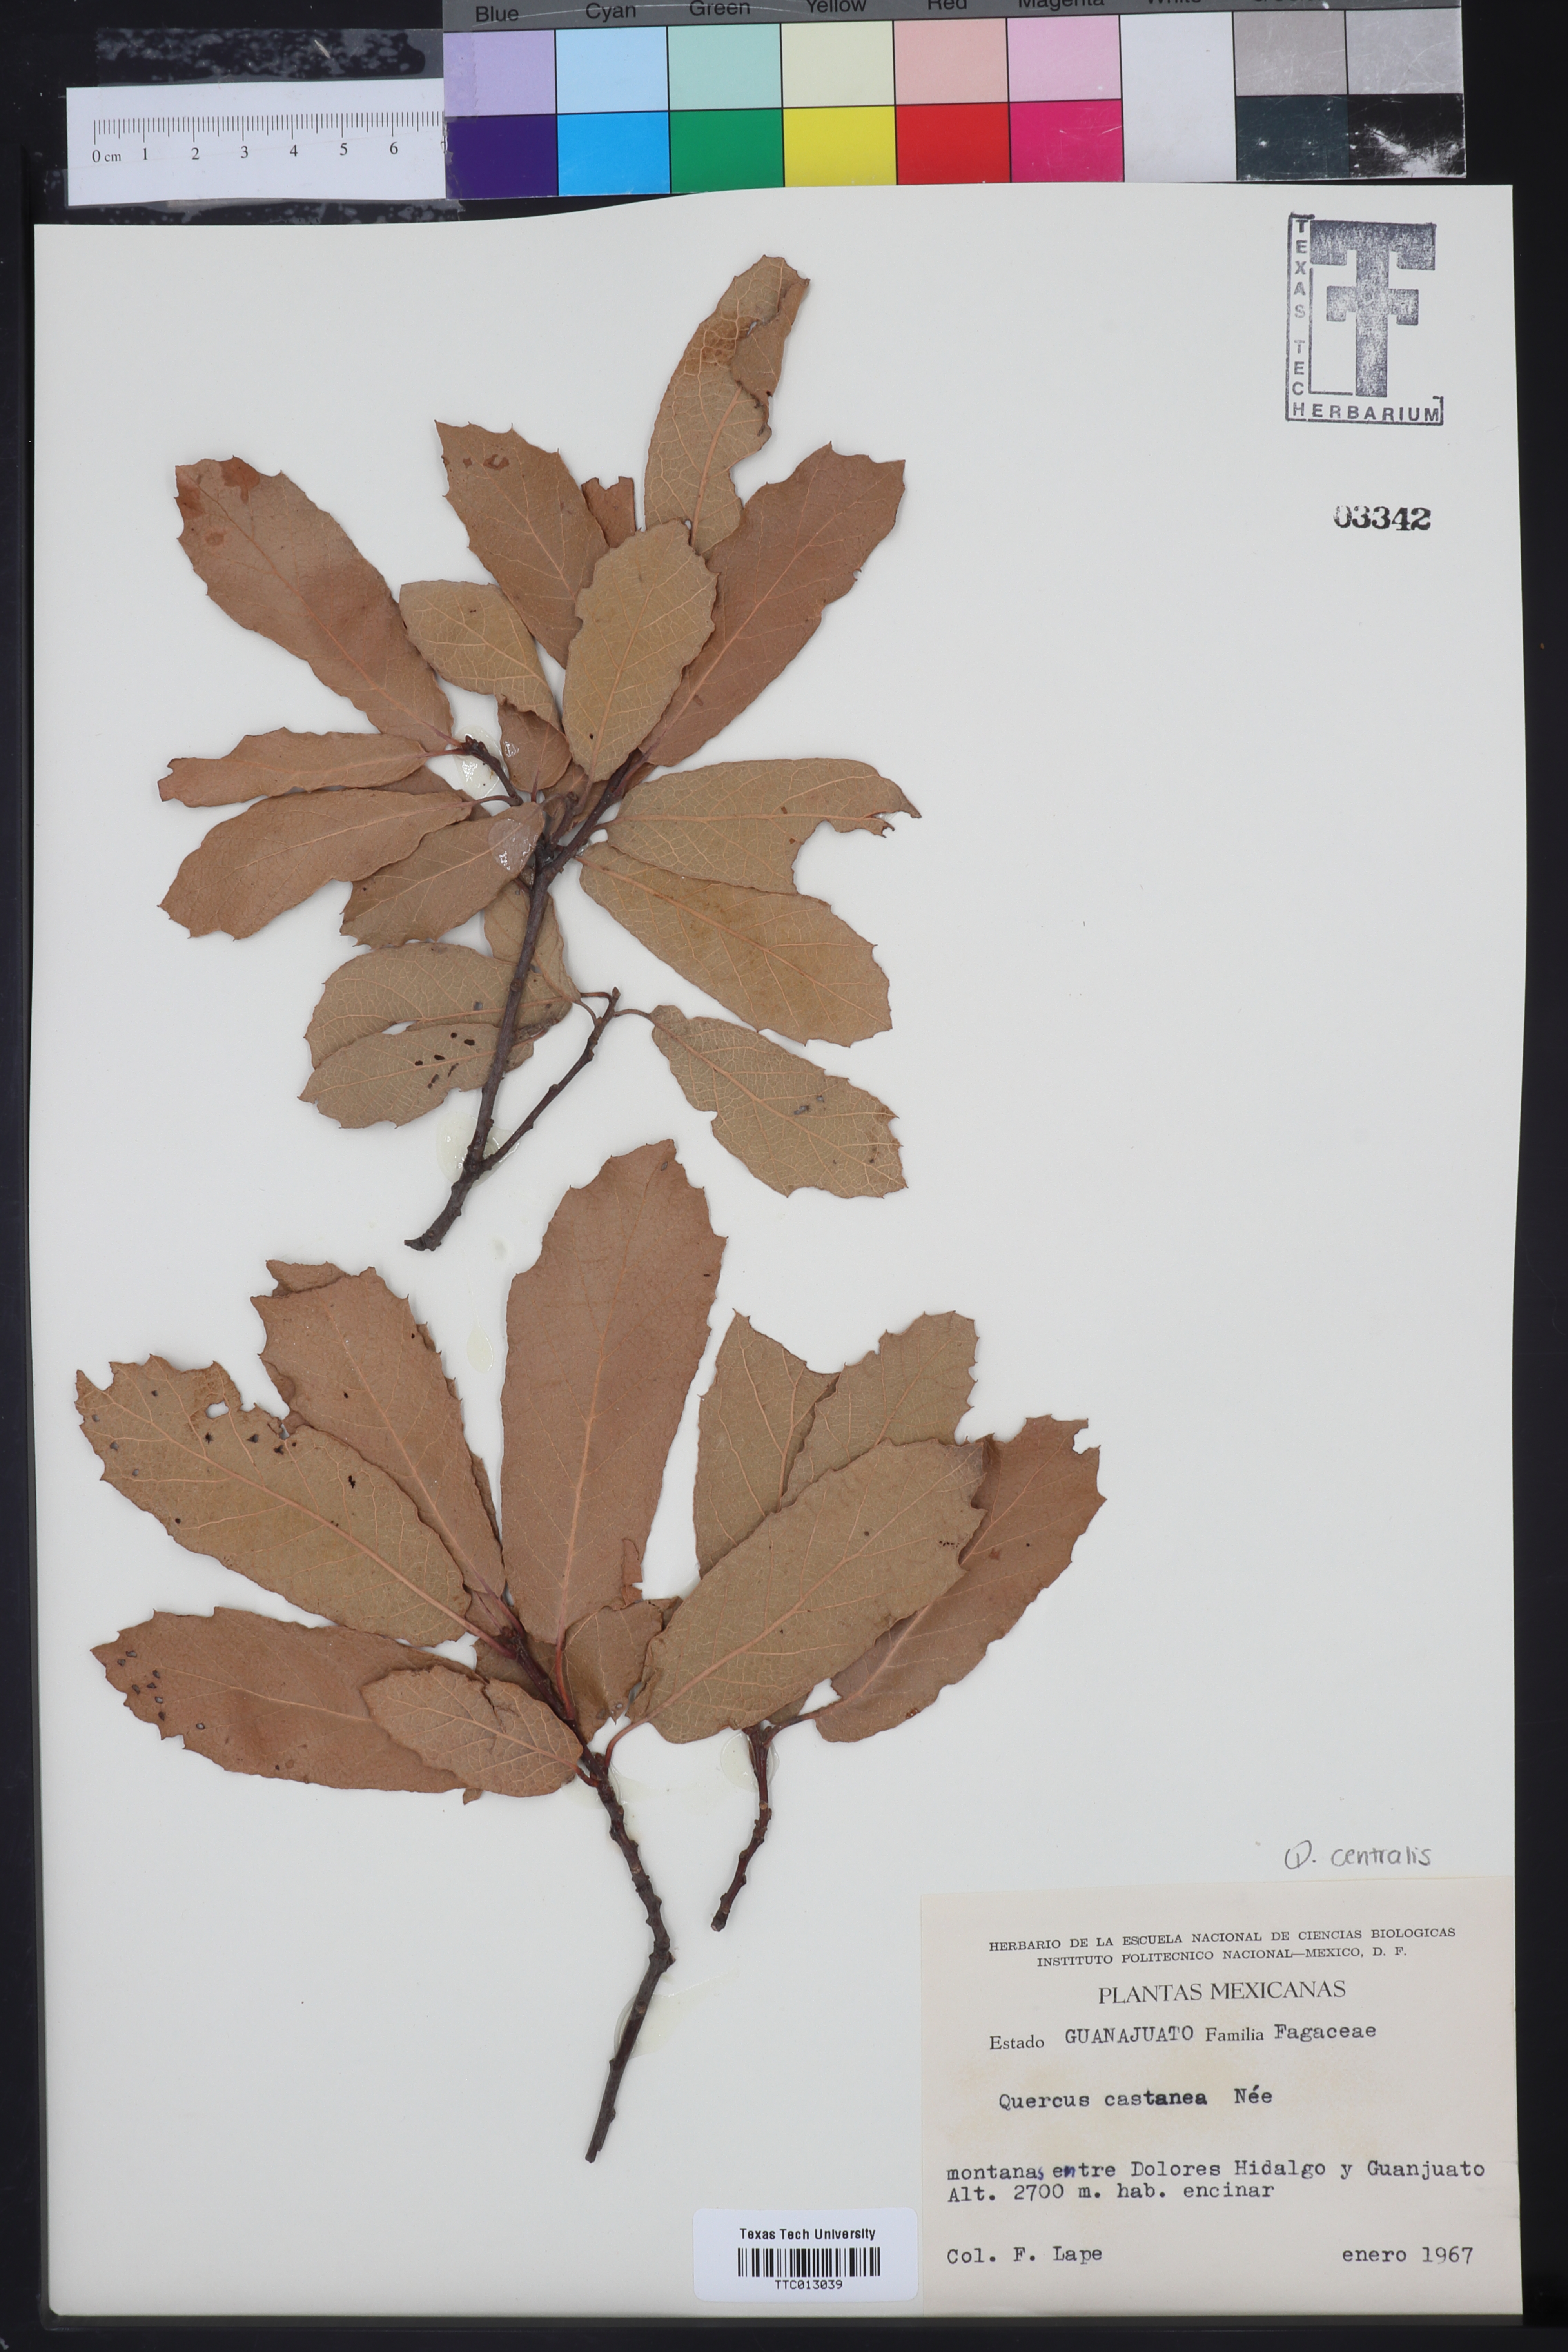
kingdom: Plantae
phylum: Tracheophyta
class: Magnoliopsida
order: Fagales
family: Fagaceae
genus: Quercus
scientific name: Quercus castanea
